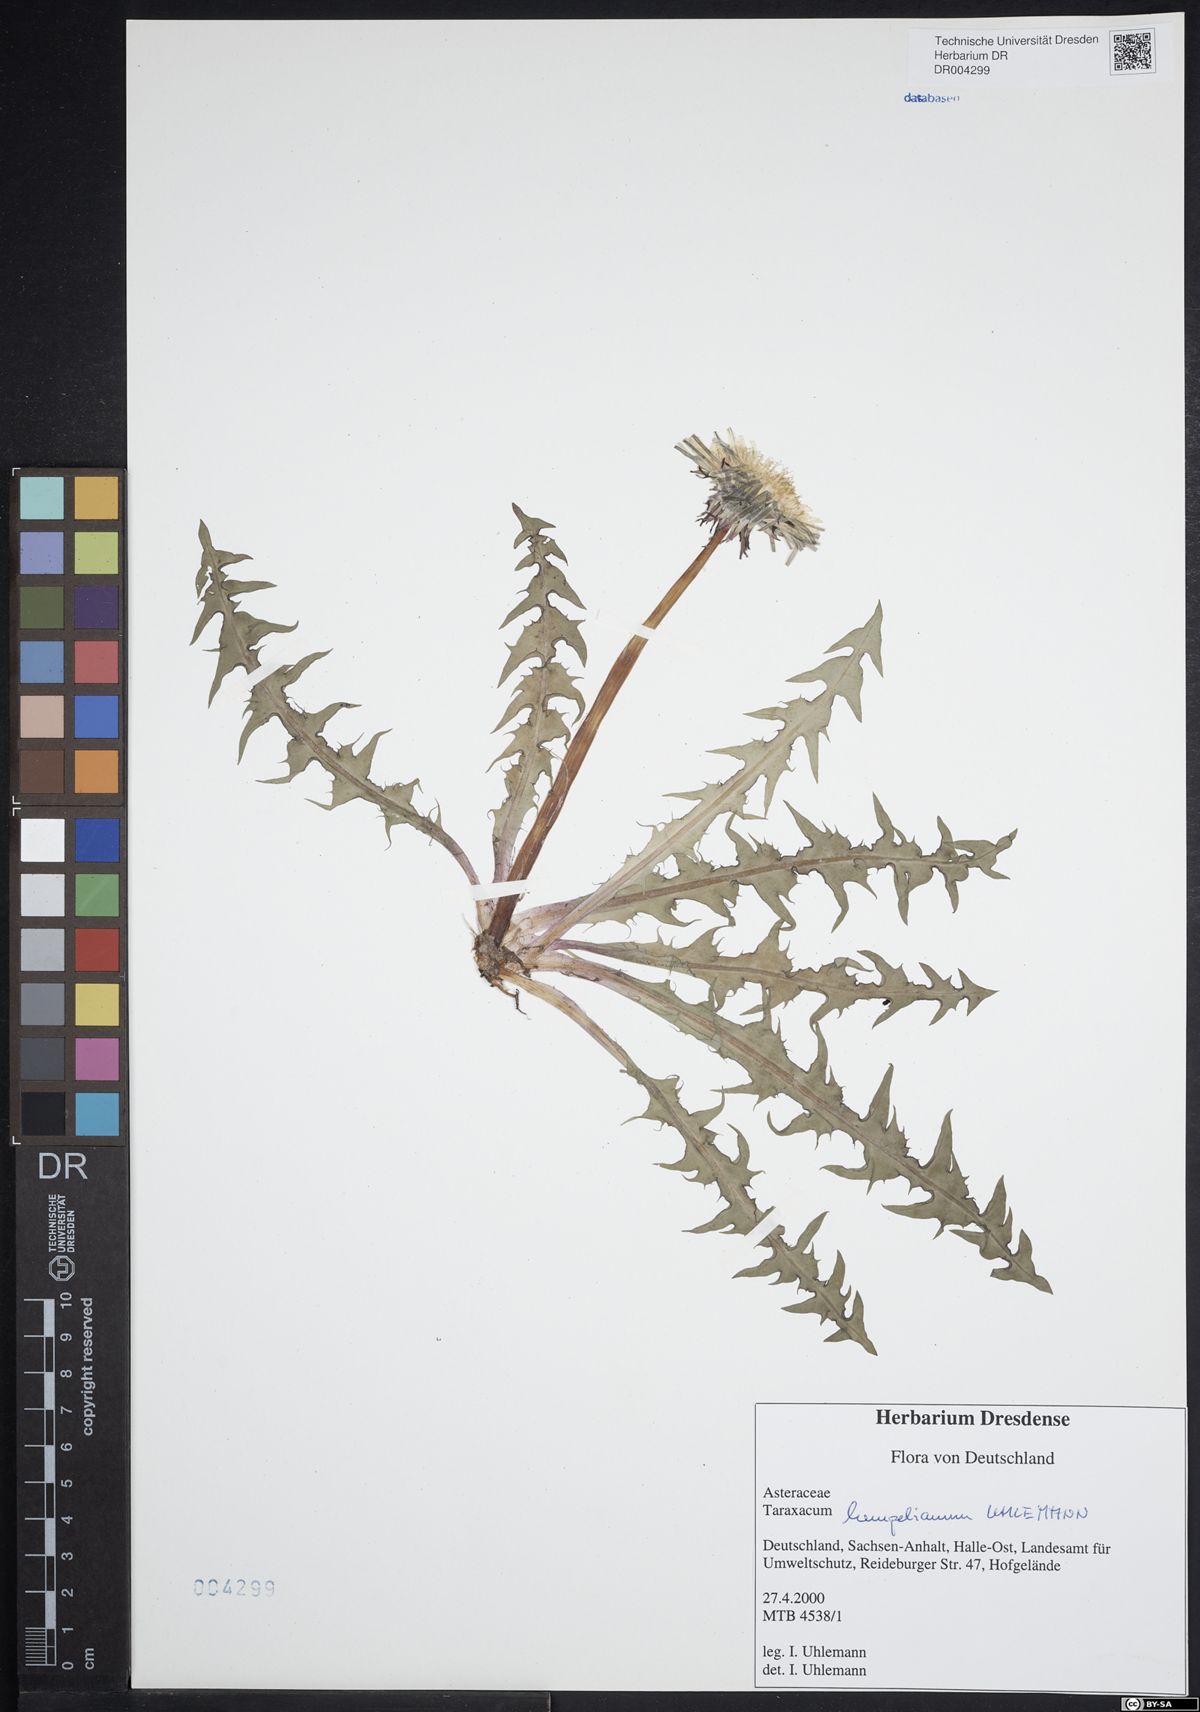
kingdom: Plantae
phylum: Tracheophyta
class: Magnoliopsida
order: Asterales
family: Asteraceae
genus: Taraxacum
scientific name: Taraxacum hempelianum
